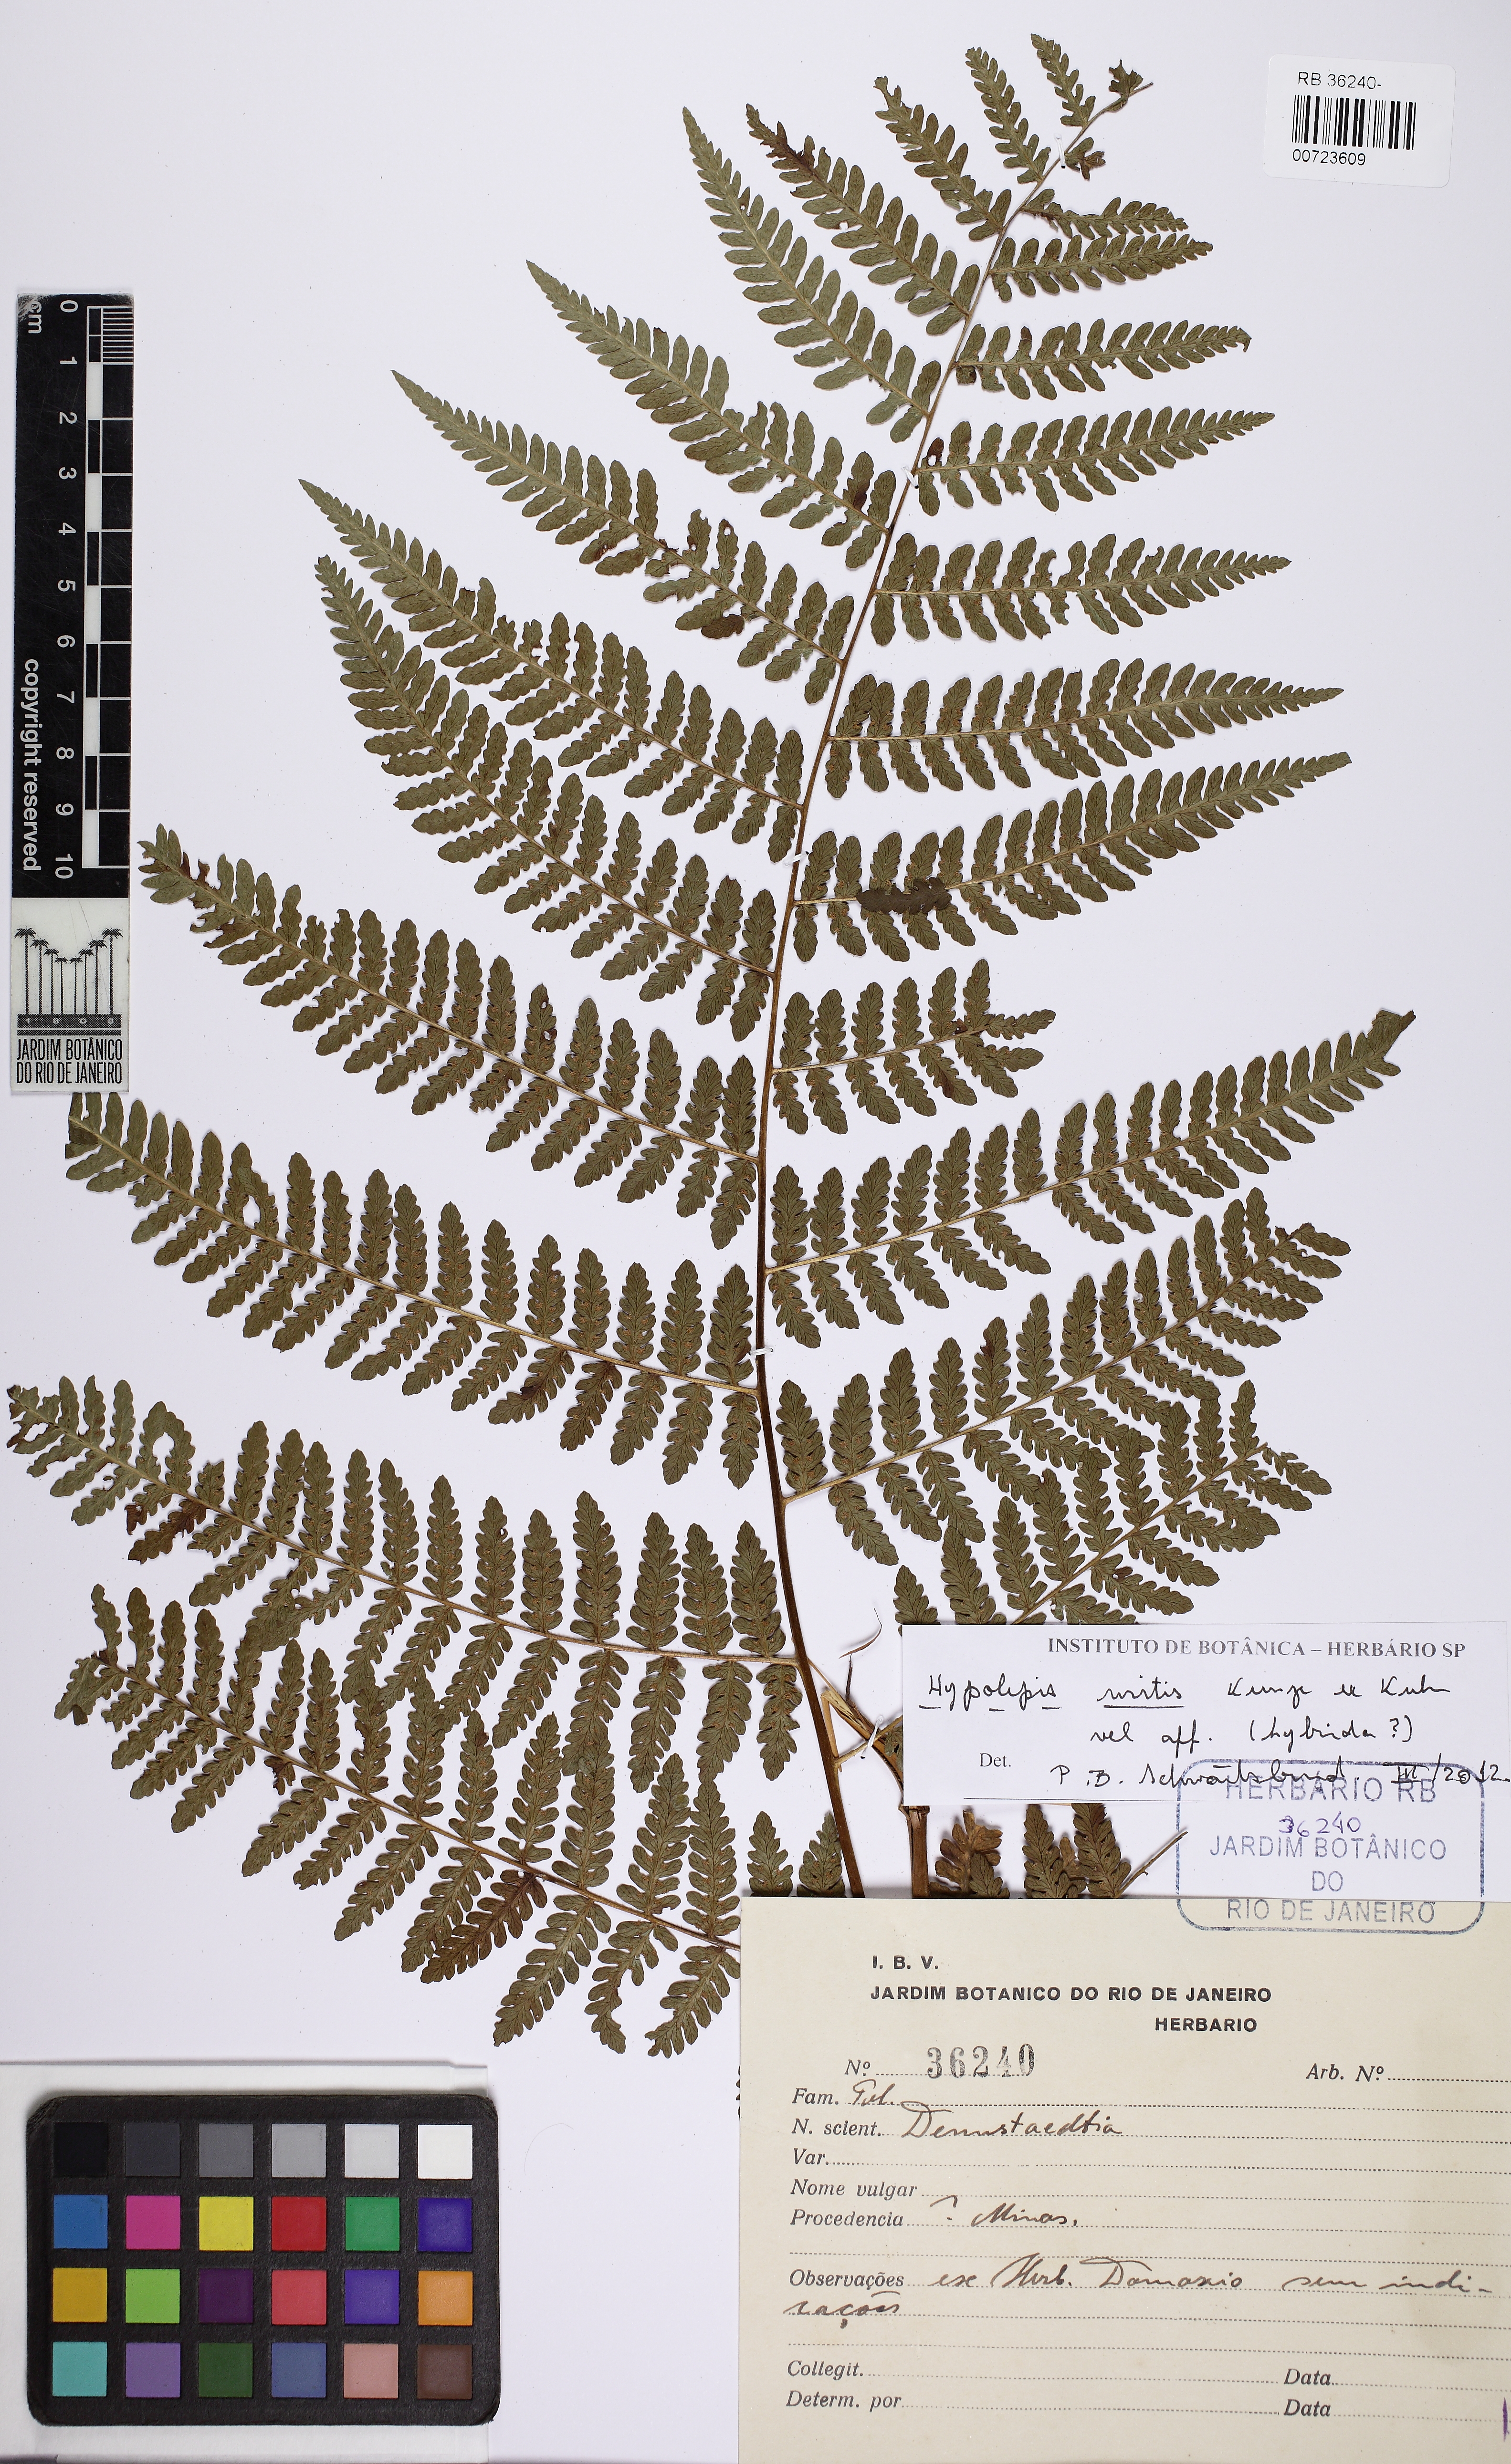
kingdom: Plantae
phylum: Tracheophyta
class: Polypodiopsida
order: Polypodiales
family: Dennstaedtiaceae
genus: Hypolepis
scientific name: Hypolepis mitis
